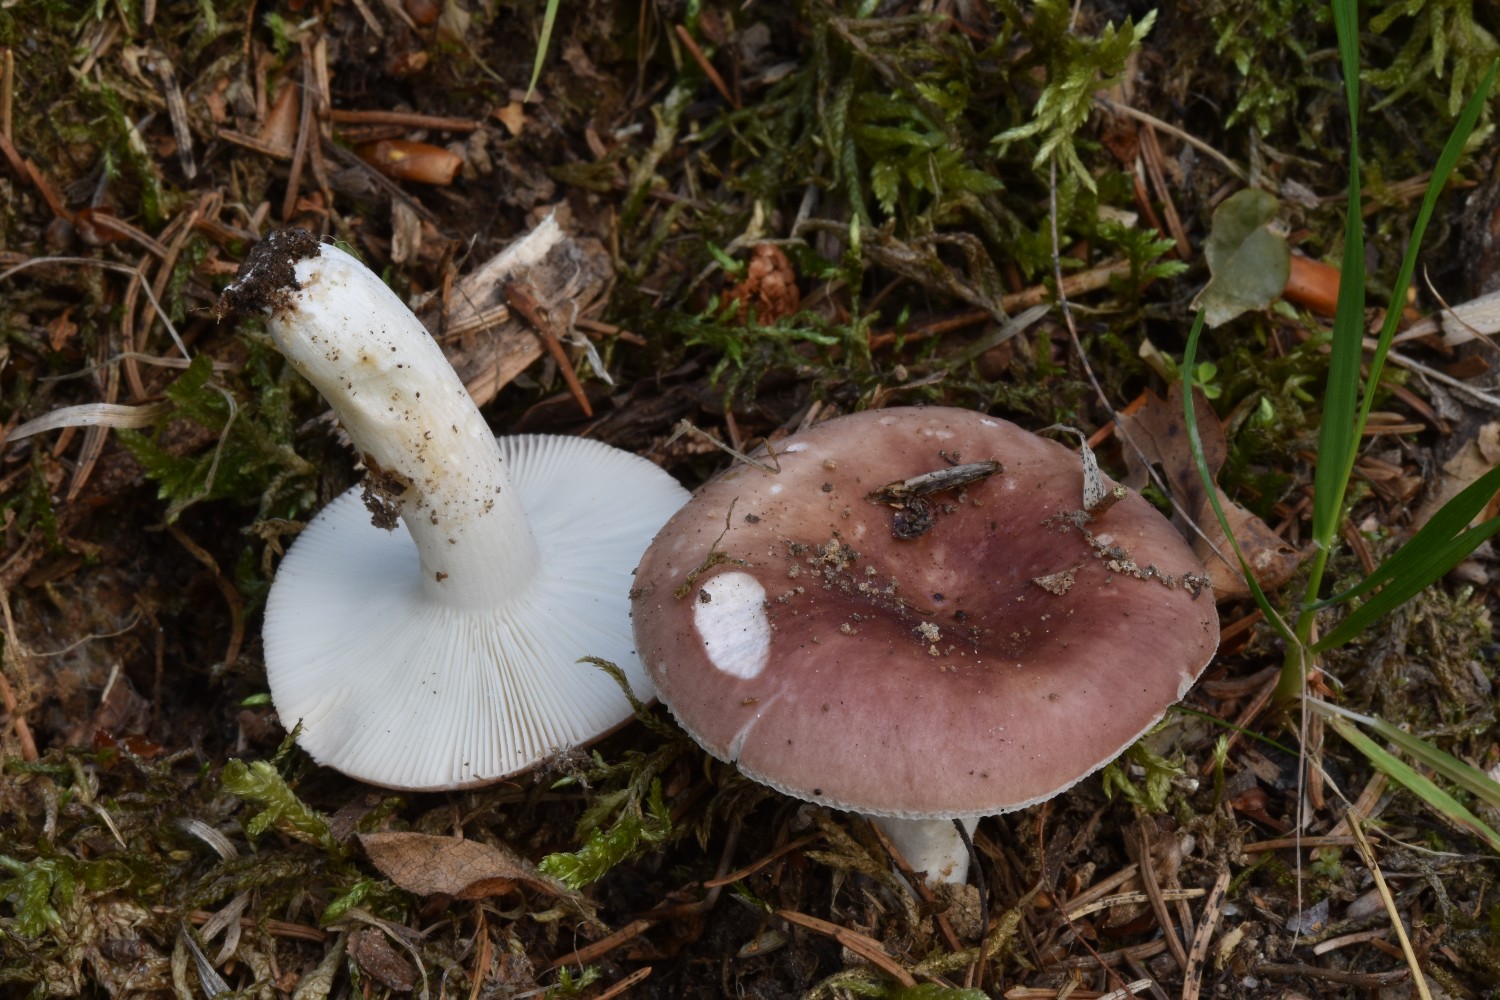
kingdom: Fungi
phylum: Basidiomycota
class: Agaricomycetes
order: Russulales
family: Russulaceae
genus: Russula
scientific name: Russula vesca
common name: spiselig skørhat
